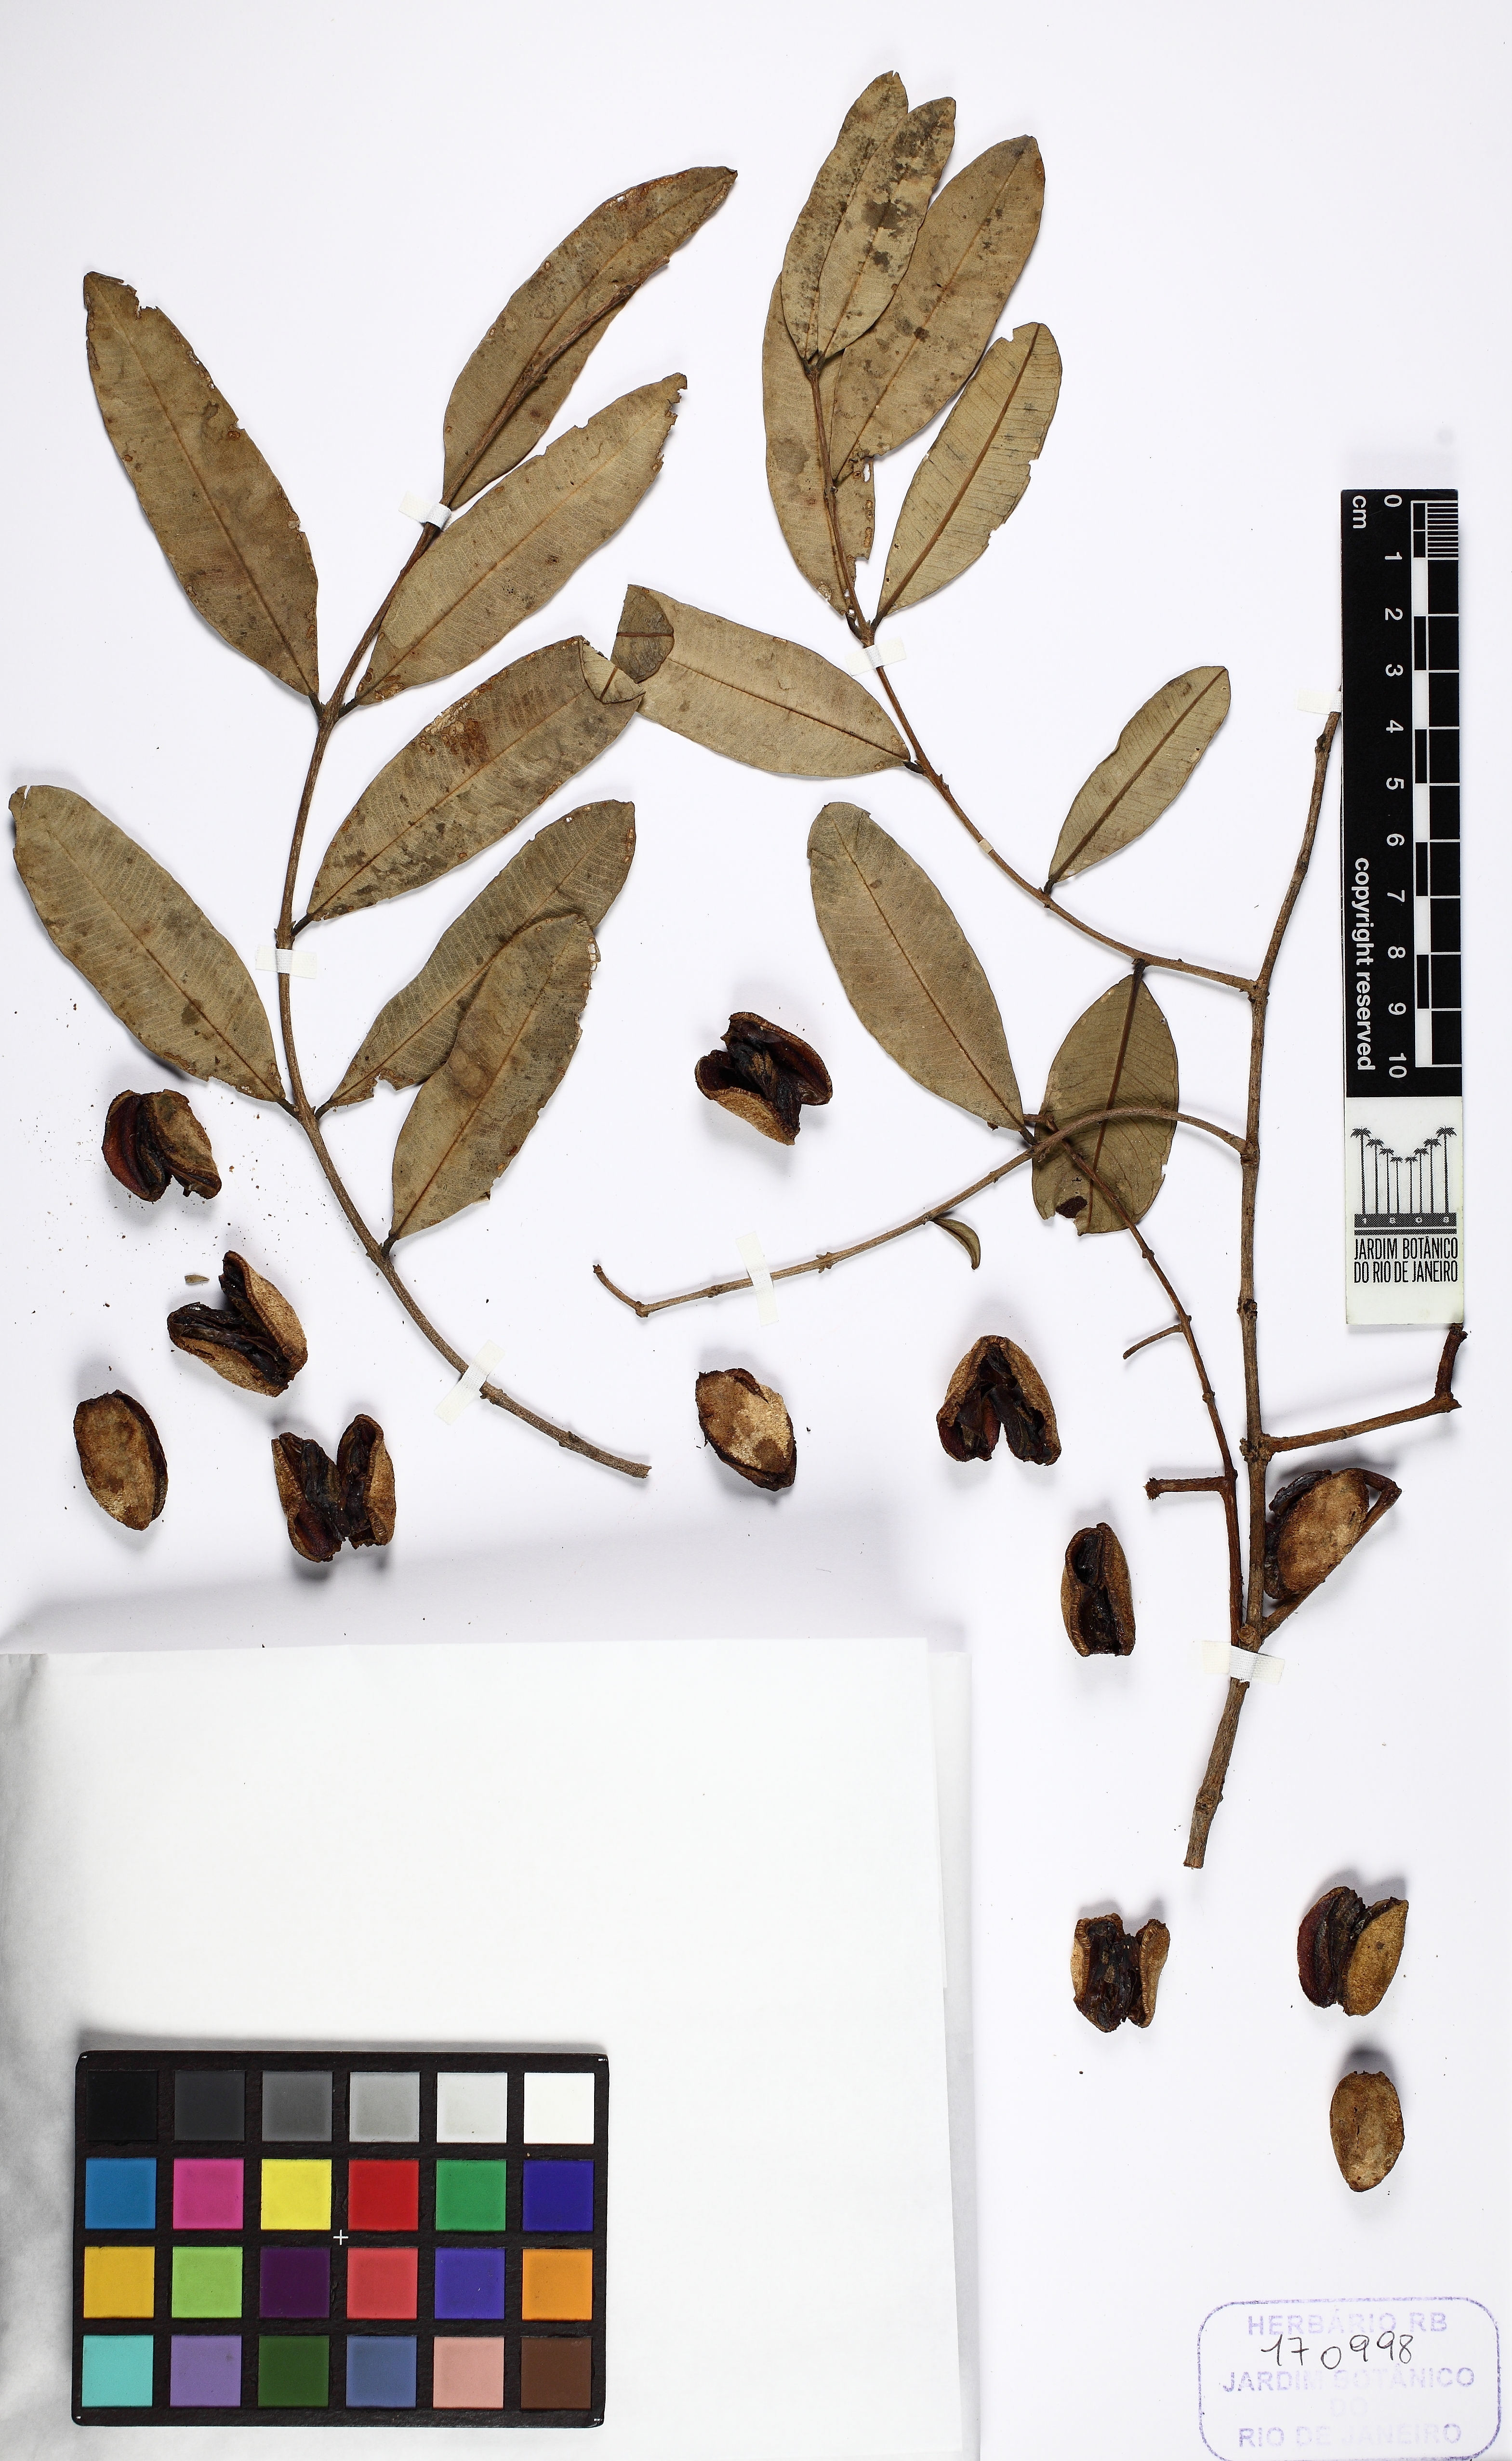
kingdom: Plantae
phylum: Tracheophyta
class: Magnoliopsida
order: Myrtales
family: Vochysiaceae
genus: Qualea
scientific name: Qualea parviflora
